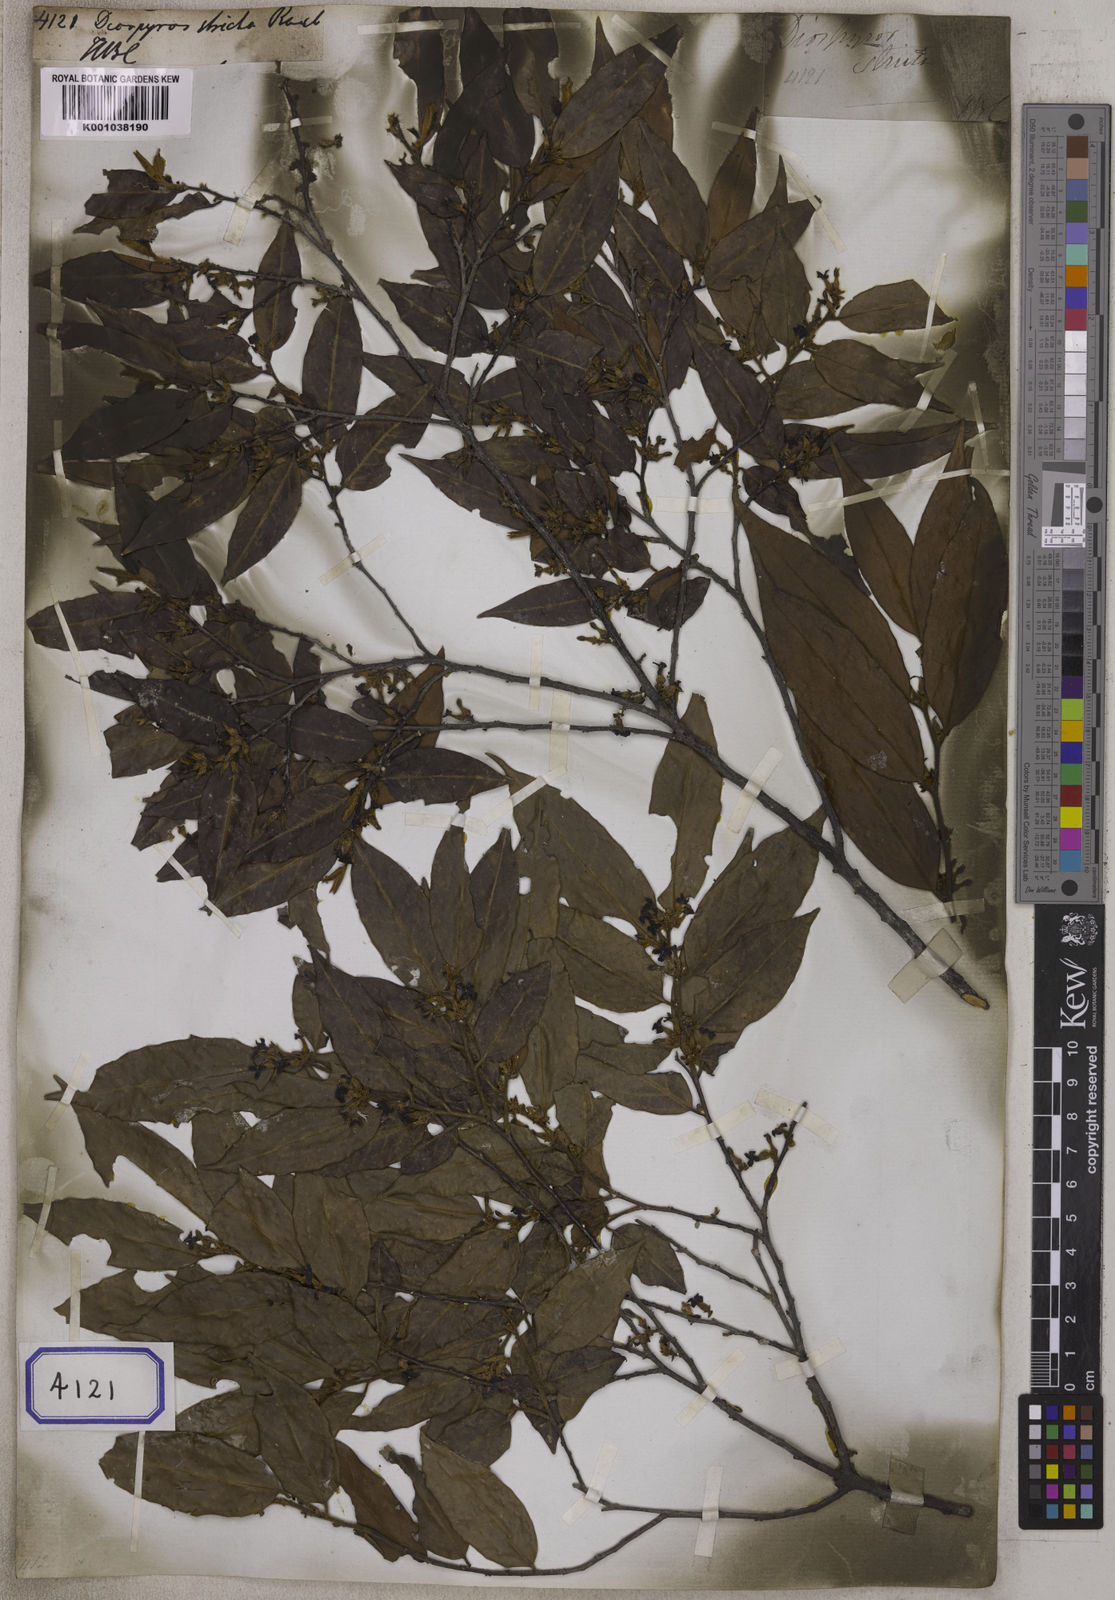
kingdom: Plantae
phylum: Tracheophyta
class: Magnoliopsida
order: Ericales
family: Ebenaceae
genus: Diospyros
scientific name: Diospyros stricta
